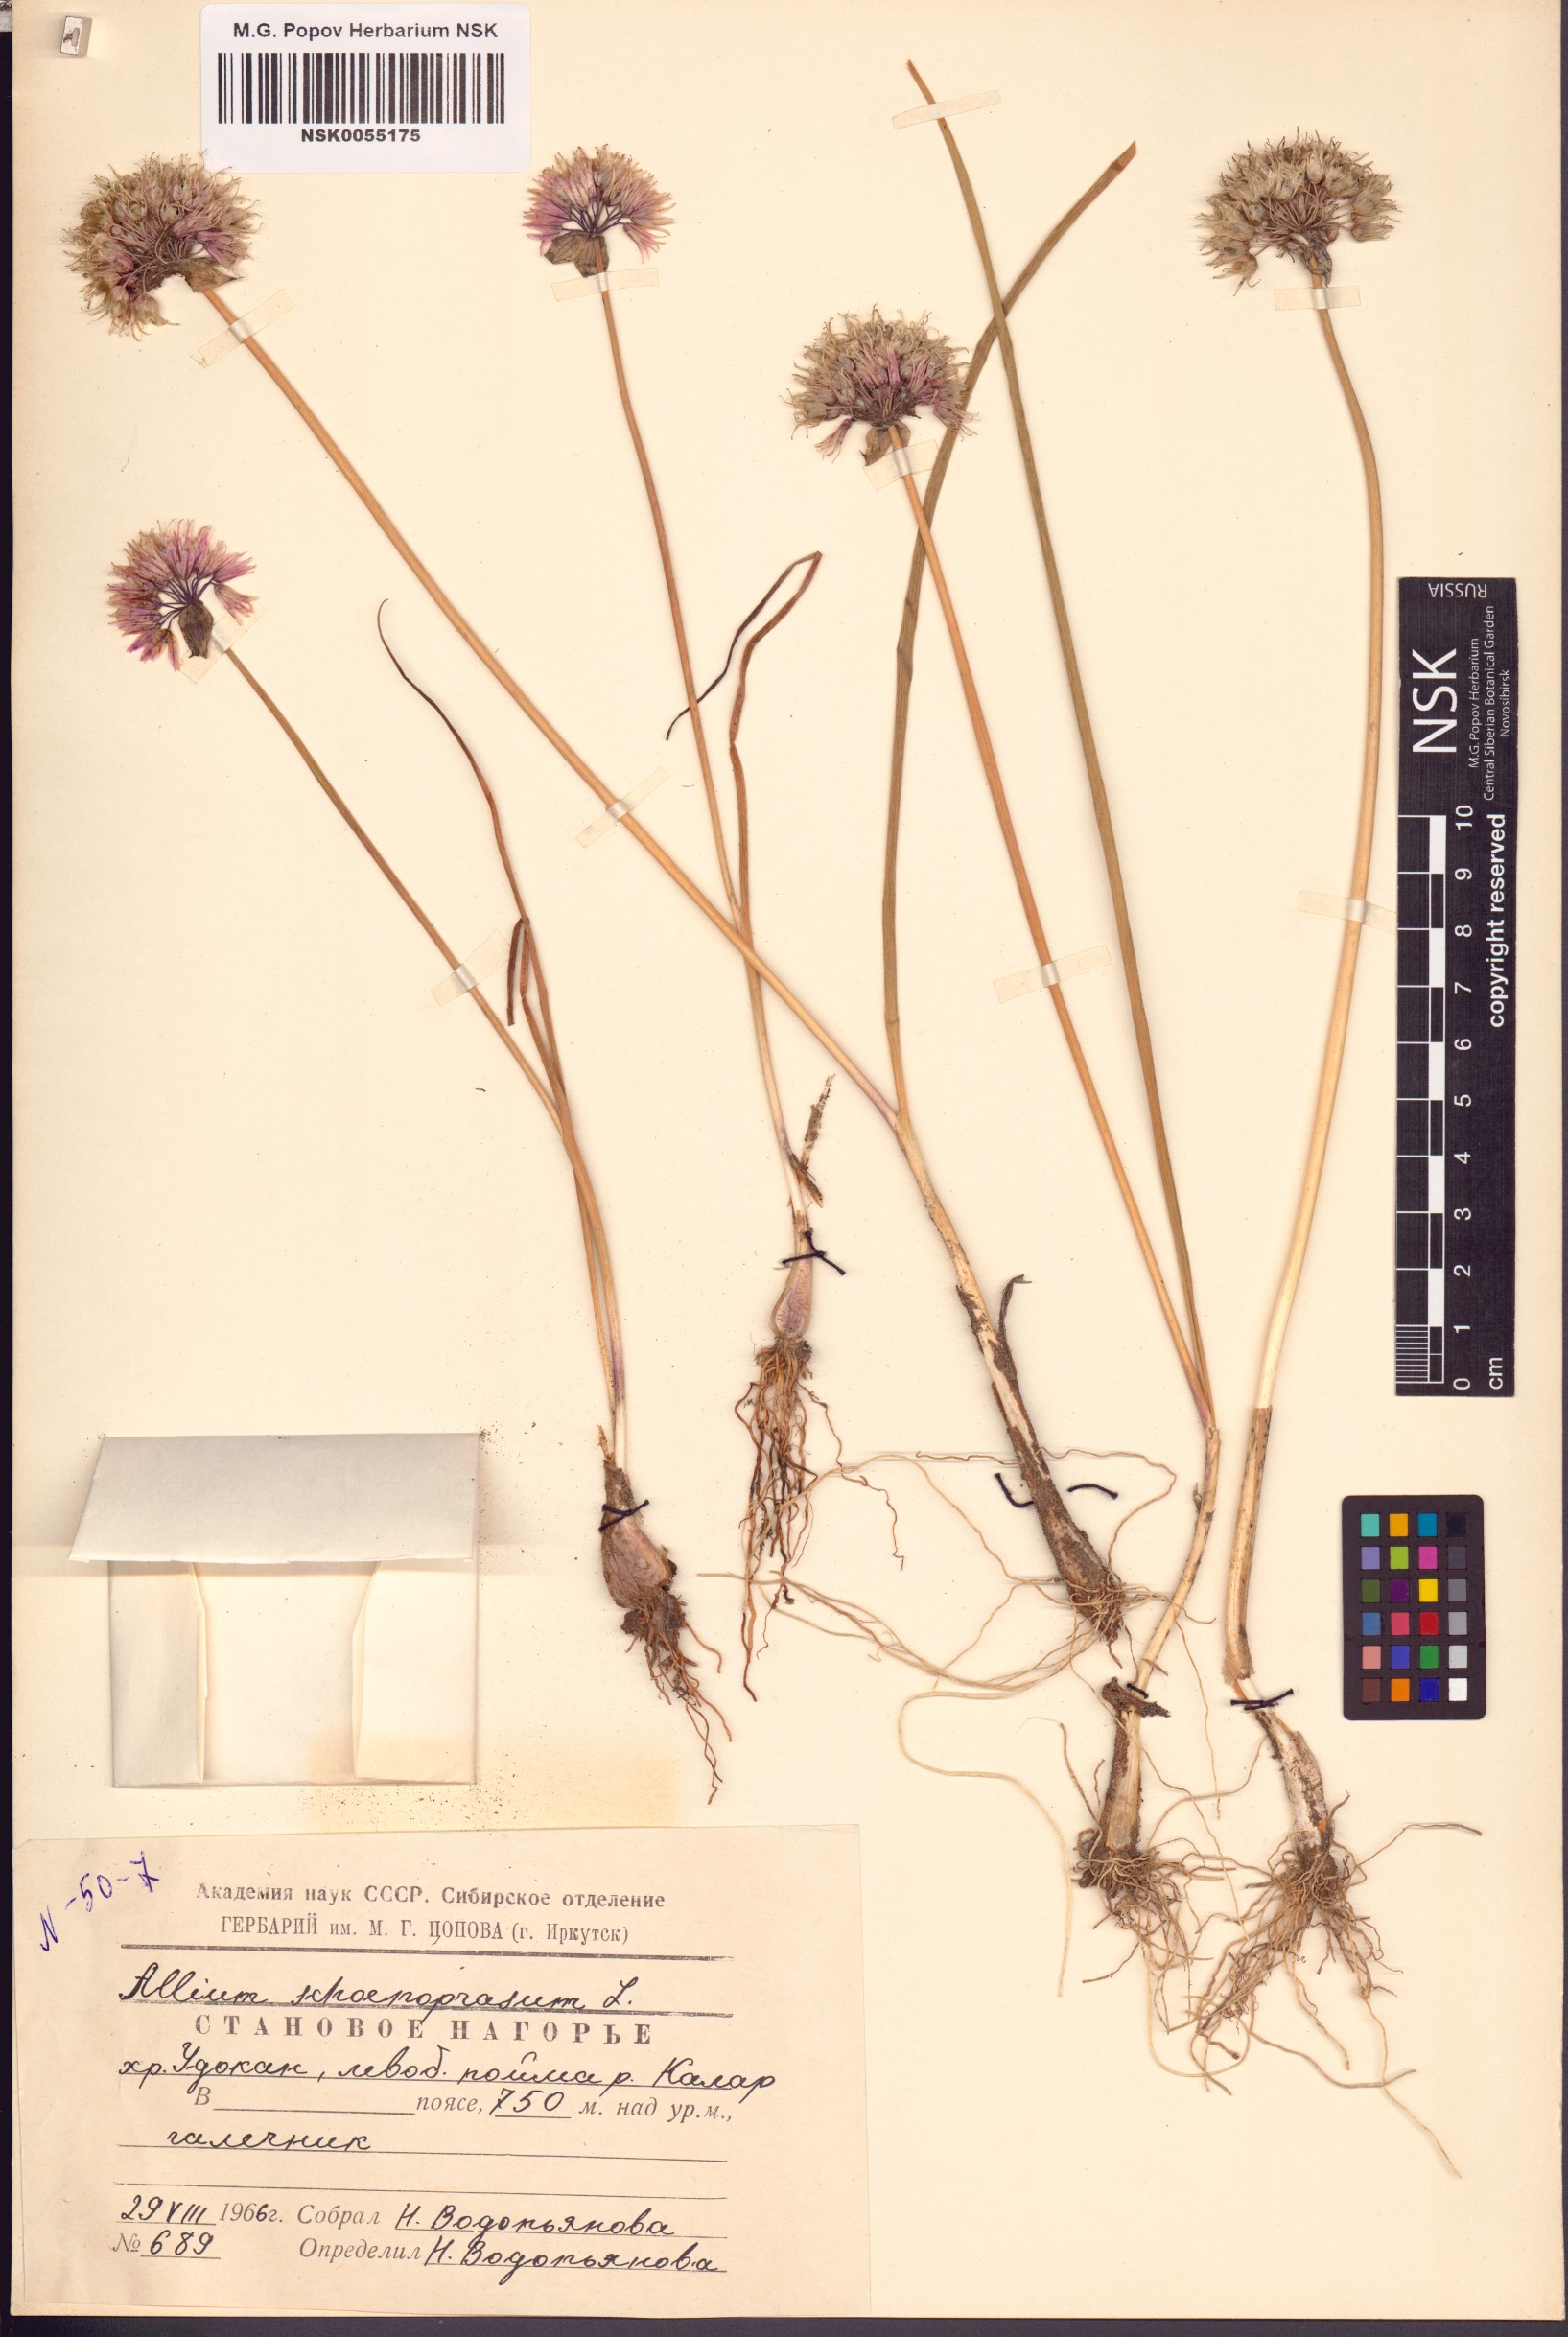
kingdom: Plantae
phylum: Tracheophyta
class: Liliopsida
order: Asparagales
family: Amaryllidaceae
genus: Allium
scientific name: Allium schoenoprasum
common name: Chives
